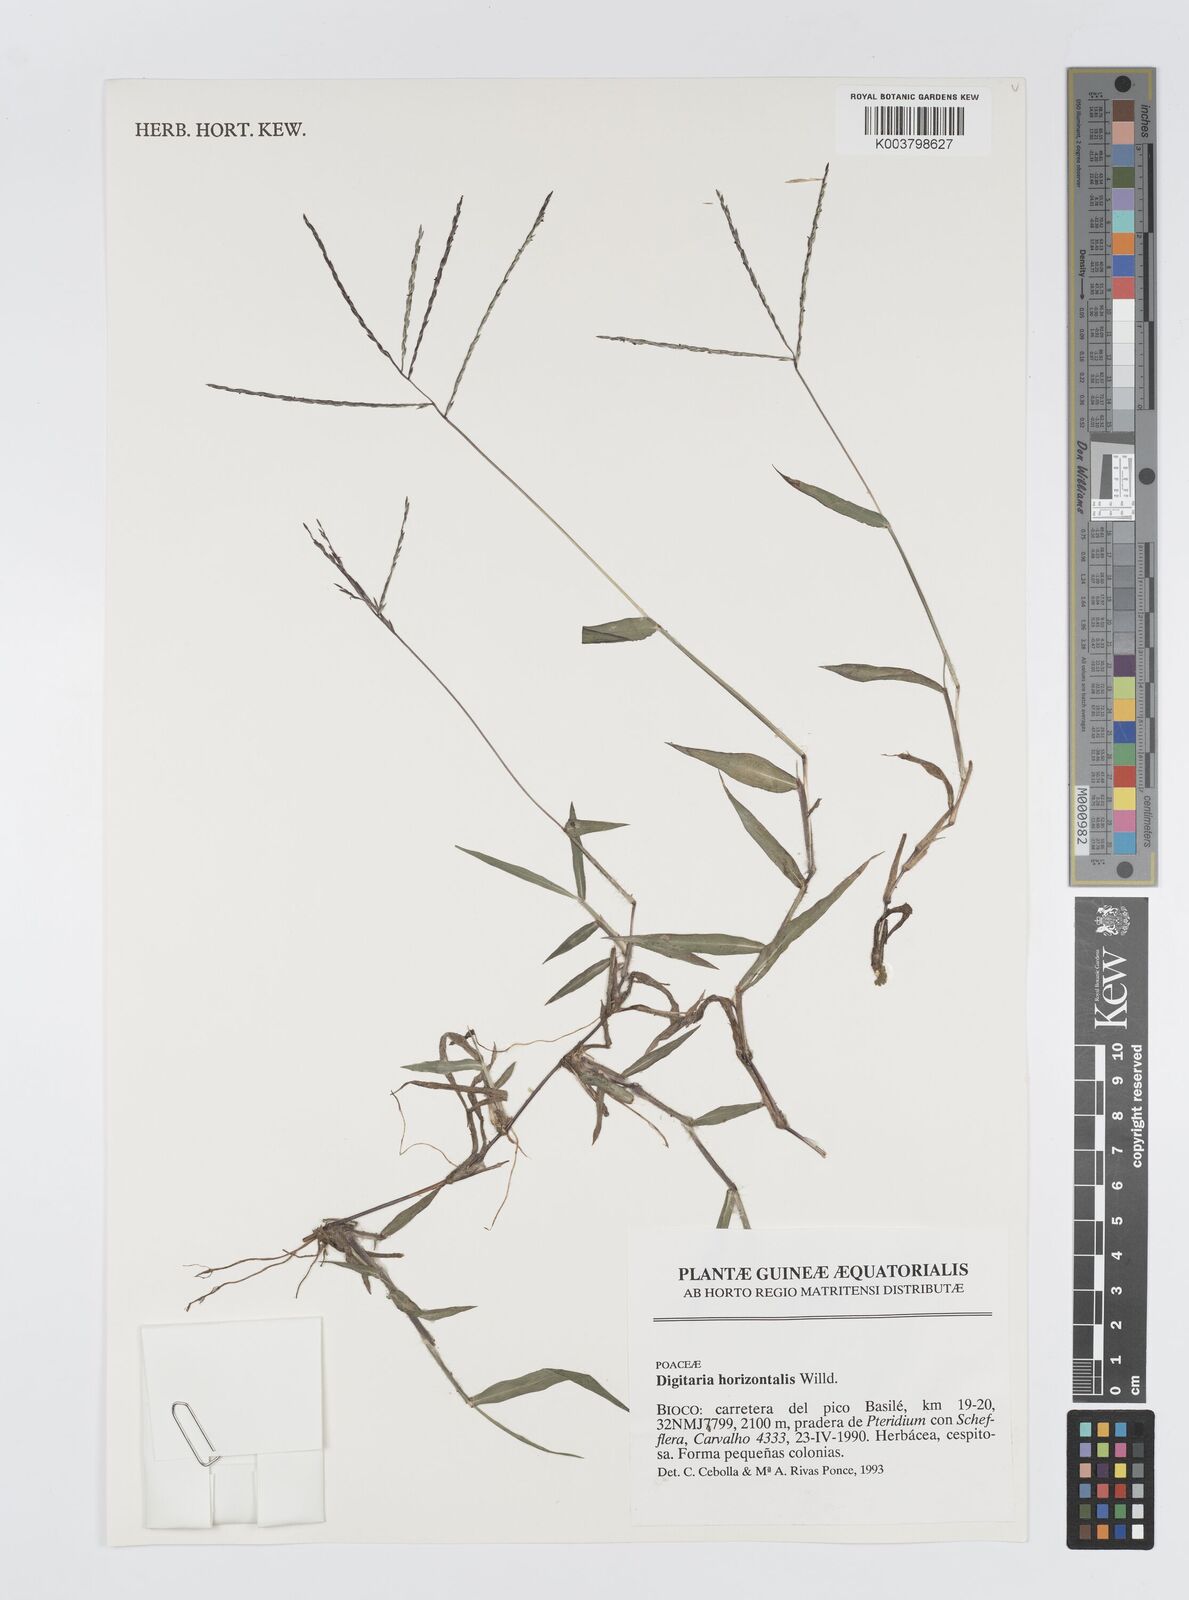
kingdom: Plantae
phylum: Tracheophyta
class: Liliopsida
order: Poales
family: Poaceae
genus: Digitaria
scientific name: Digitaria horizontalis
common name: Jamaican crabgrass
